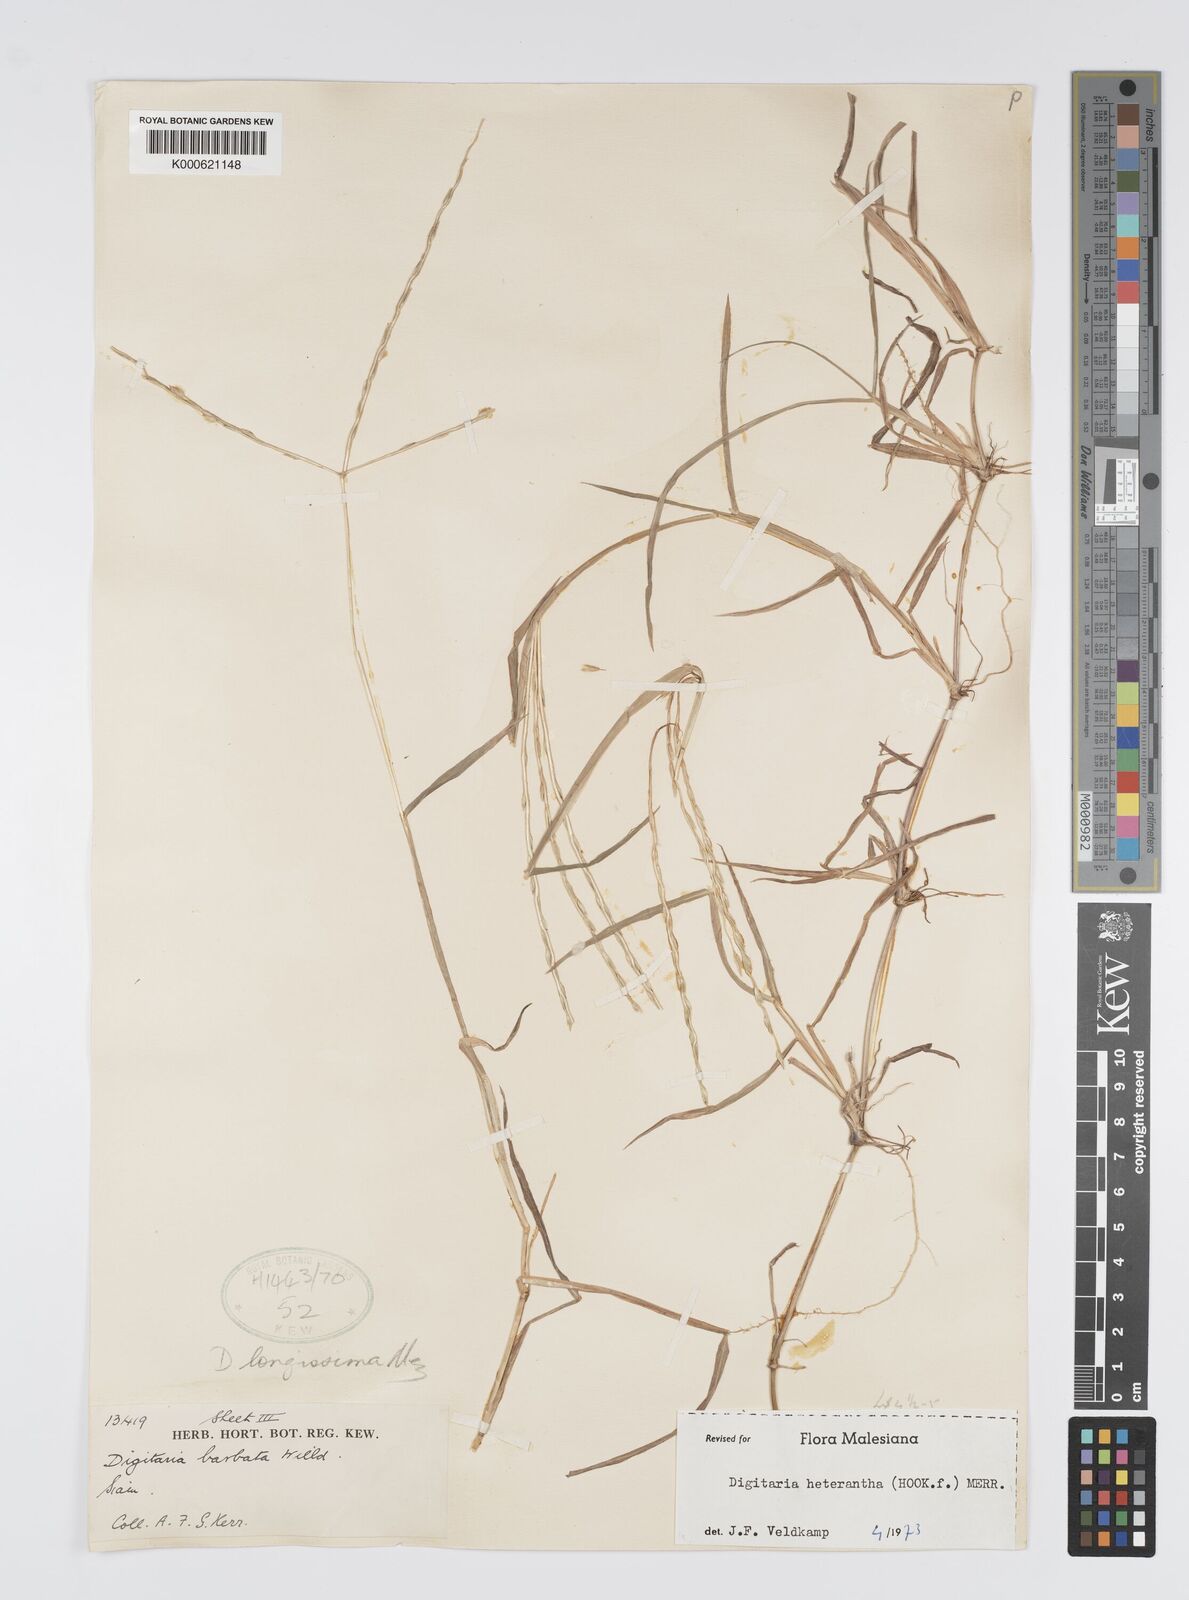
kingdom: Plantae
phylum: Tracheophyta
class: Liliopsida
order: Poales
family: Poaceae
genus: Digitaria
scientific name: Digitaria heterantha
